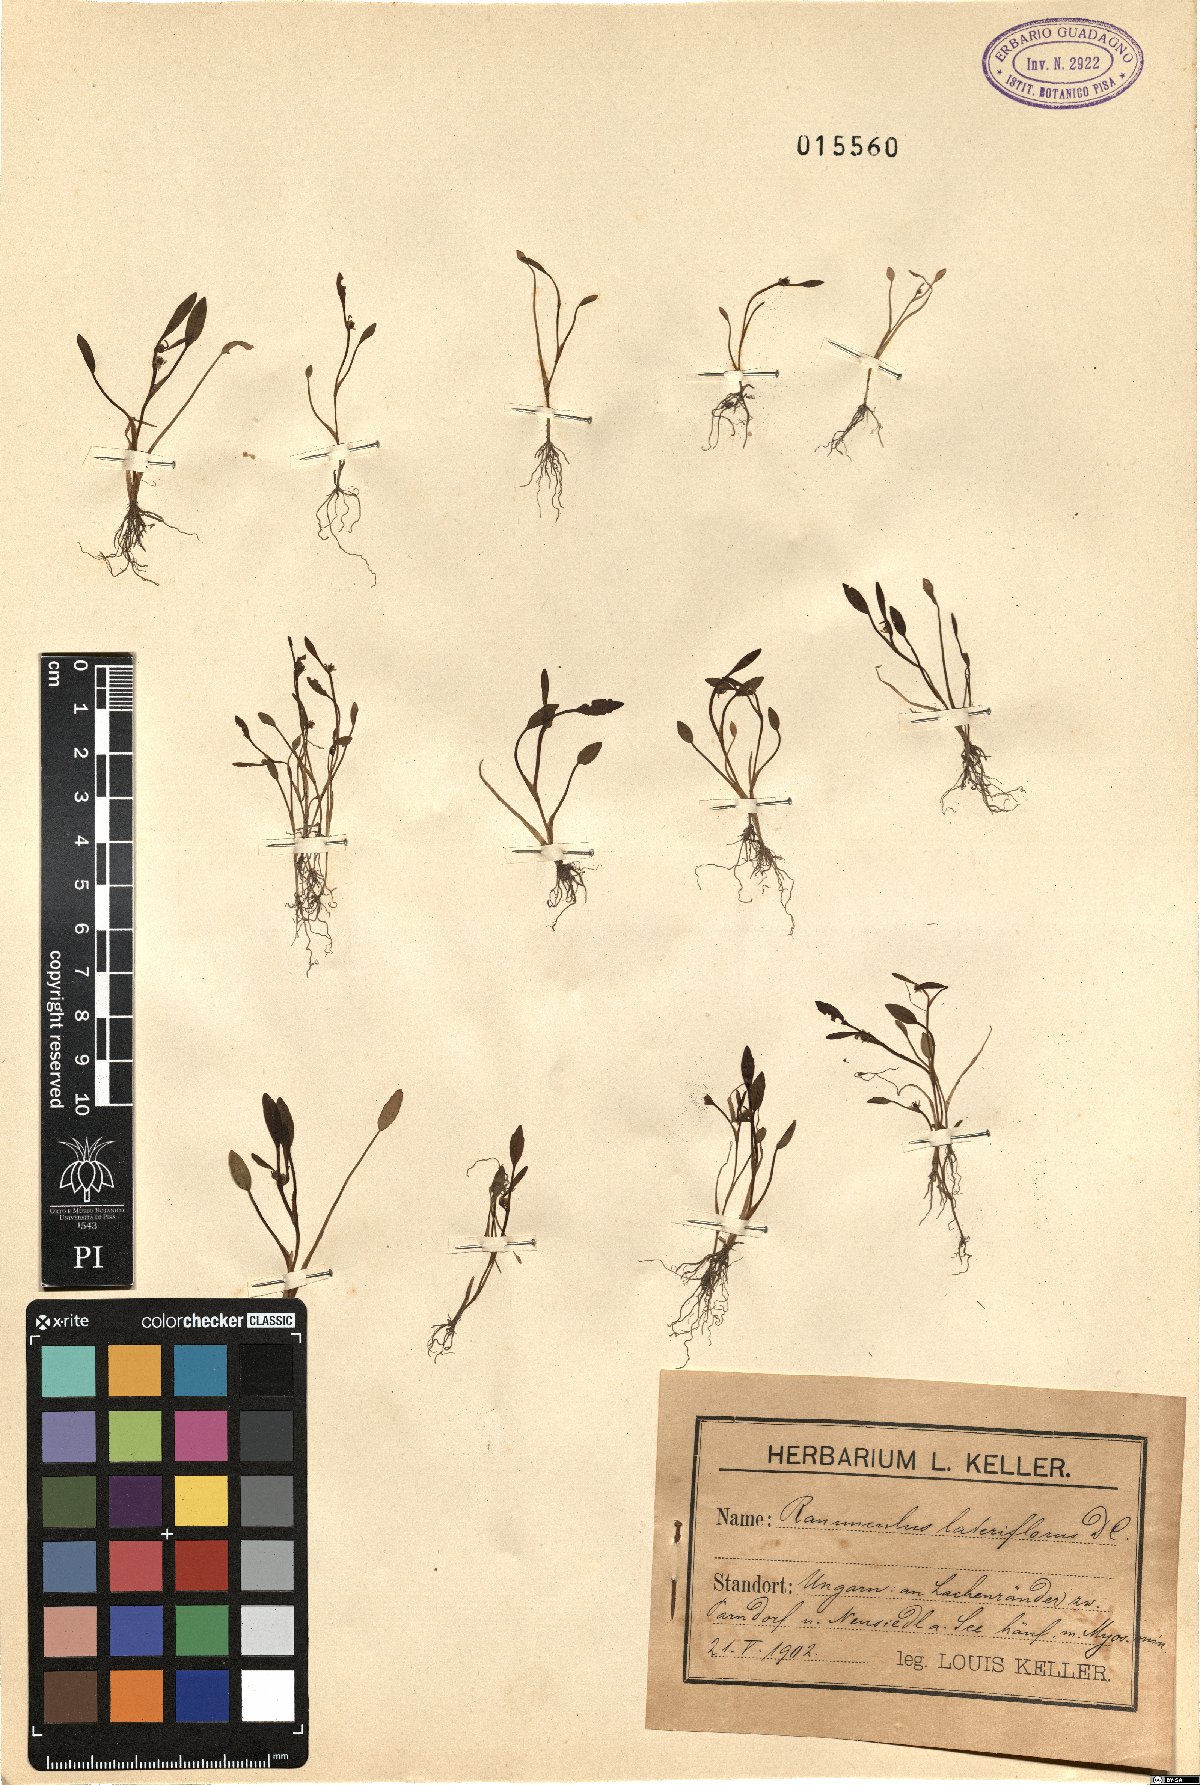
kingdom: Plantae
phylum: Tracheophyta
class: Magnoliopsida
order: Ranunculales
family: Ranunculaceae
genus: Ranunculus
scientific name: Ranunculus lateriflorus
